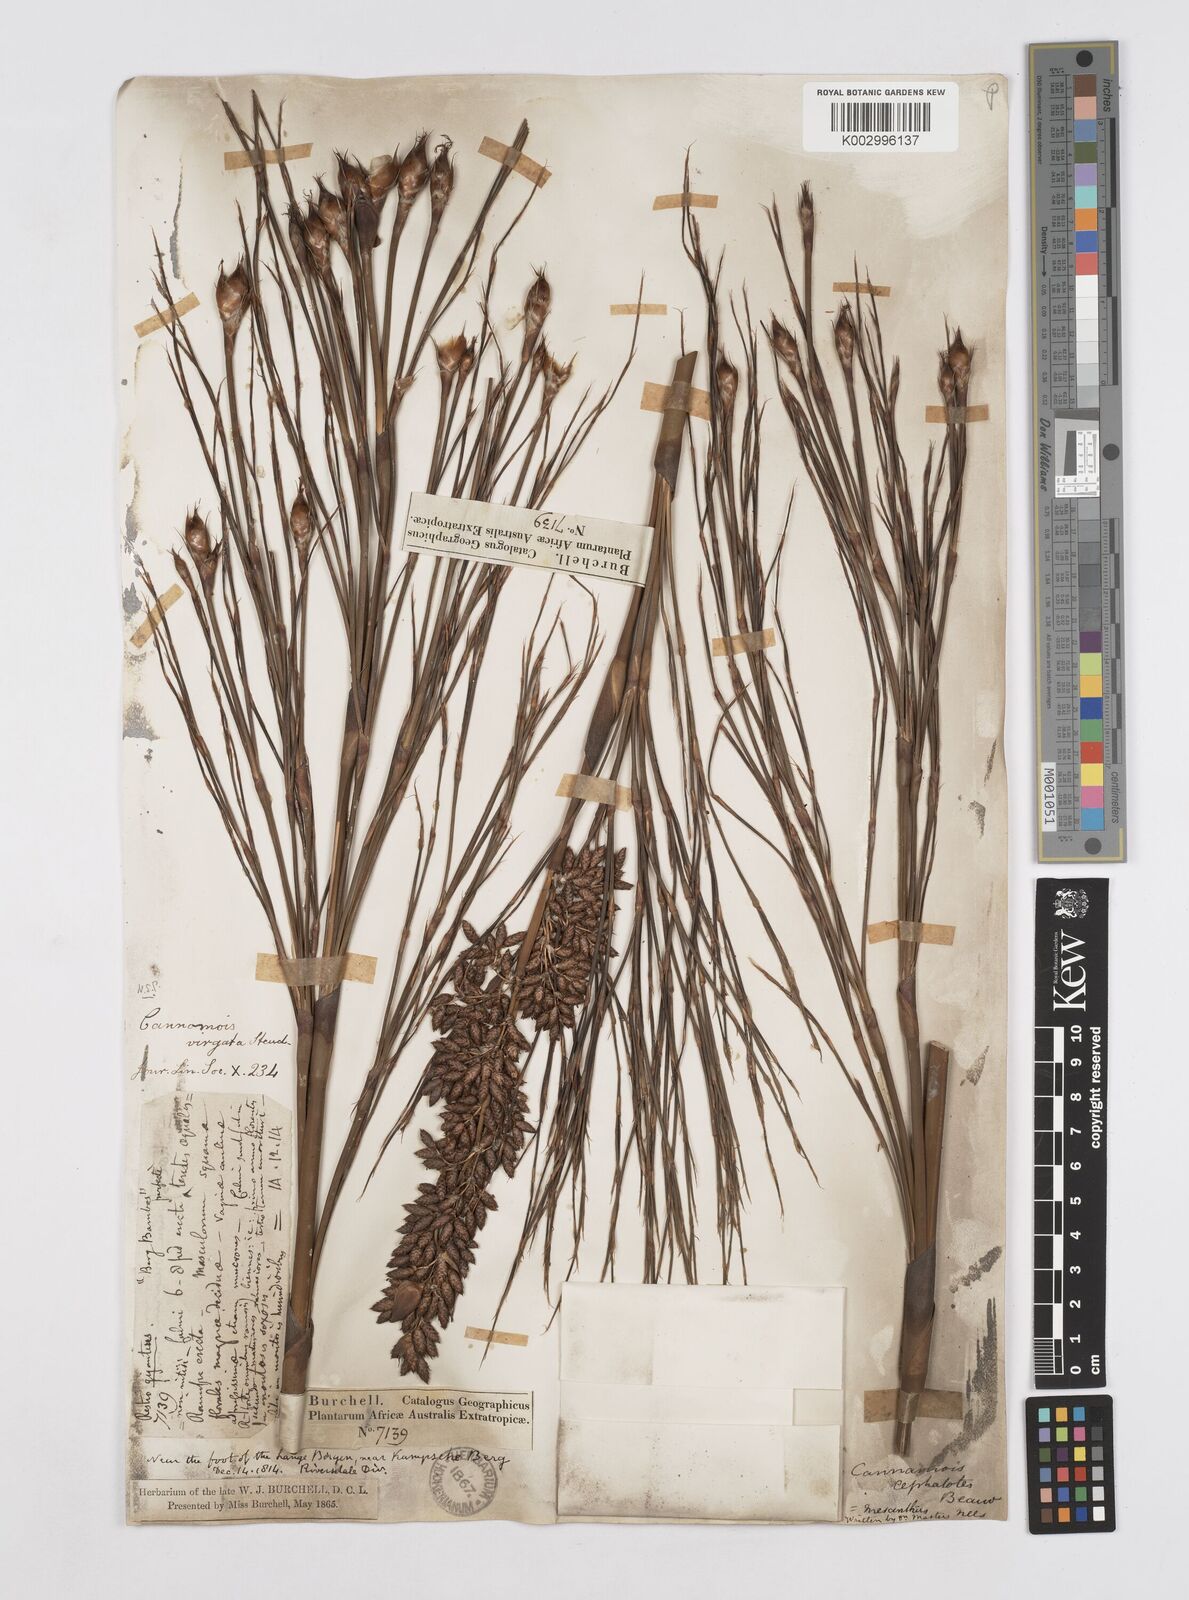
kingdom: Plantae
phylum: Tracheophyta
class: Liliopsida
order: Poales
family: Restionaceae
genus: Cannomois
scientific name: Cannomois virgata
